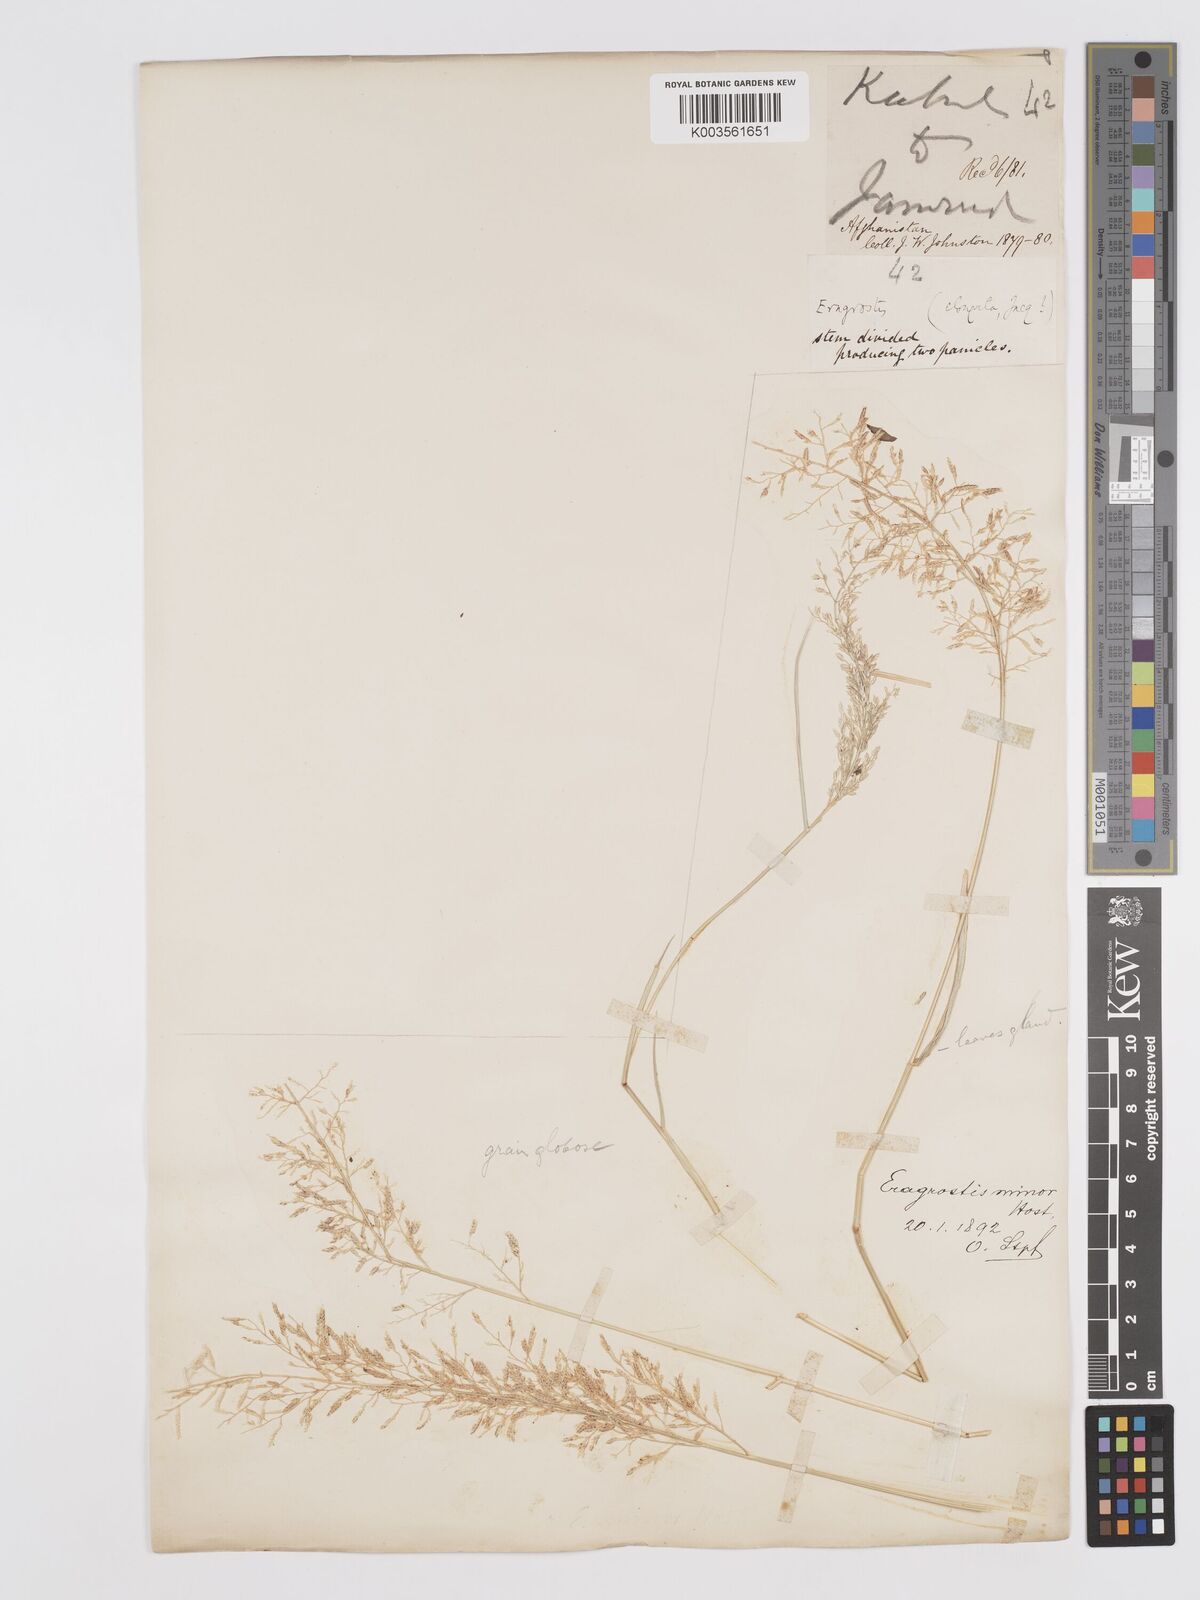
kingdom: Plantae
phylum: Tracheophyta
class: Liliopsida
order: Poales
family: Poaceae
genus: Eragrostis
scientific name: Eragrostis minor
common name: Small love-grass
